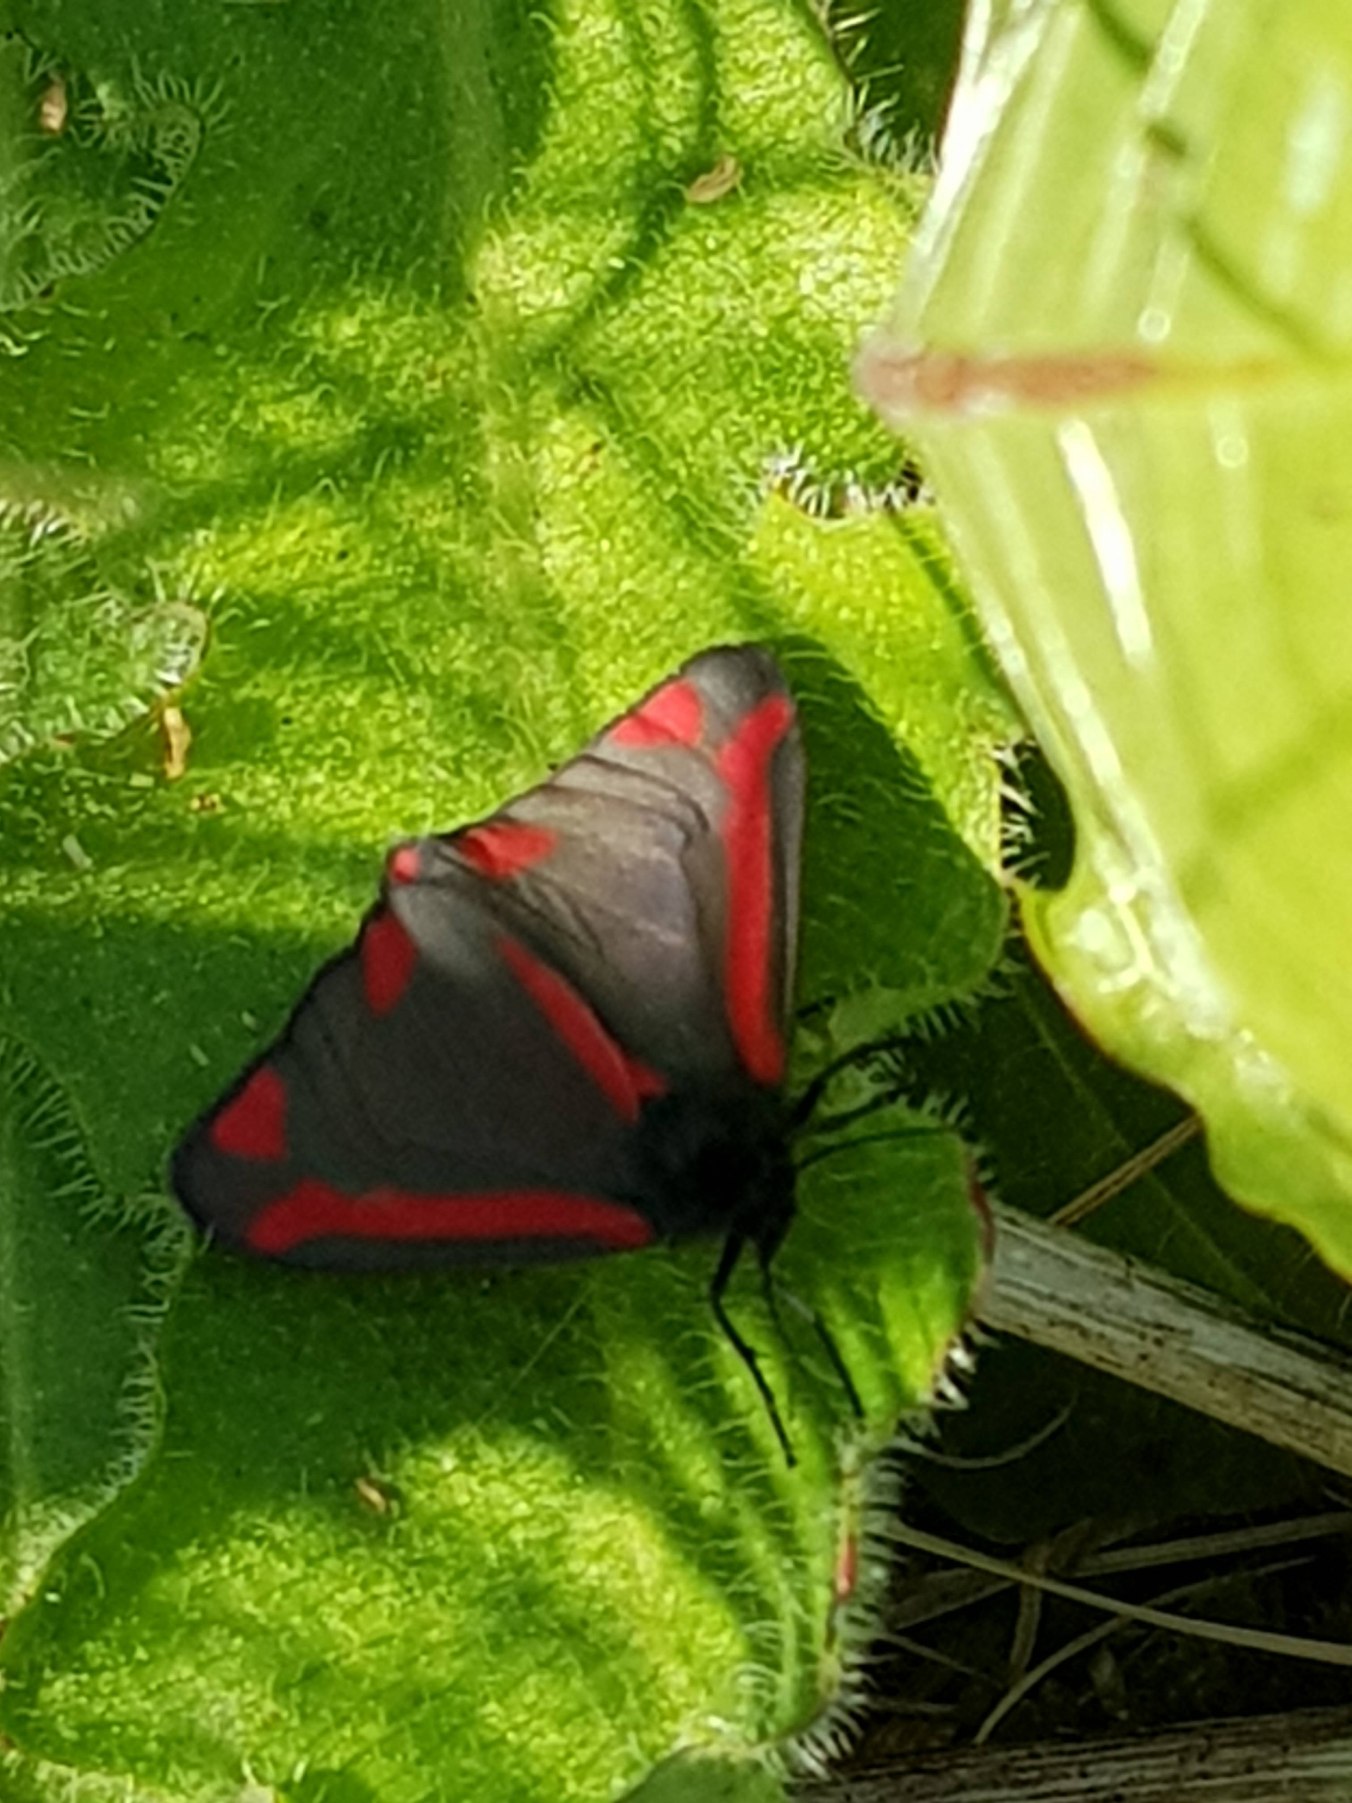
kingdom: Animalia
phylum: Arthropoda
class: Insecta
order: Lepidoptera
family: Erebidae
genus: Tyria
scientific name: Tyria jacobaeae
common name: Blodplet
